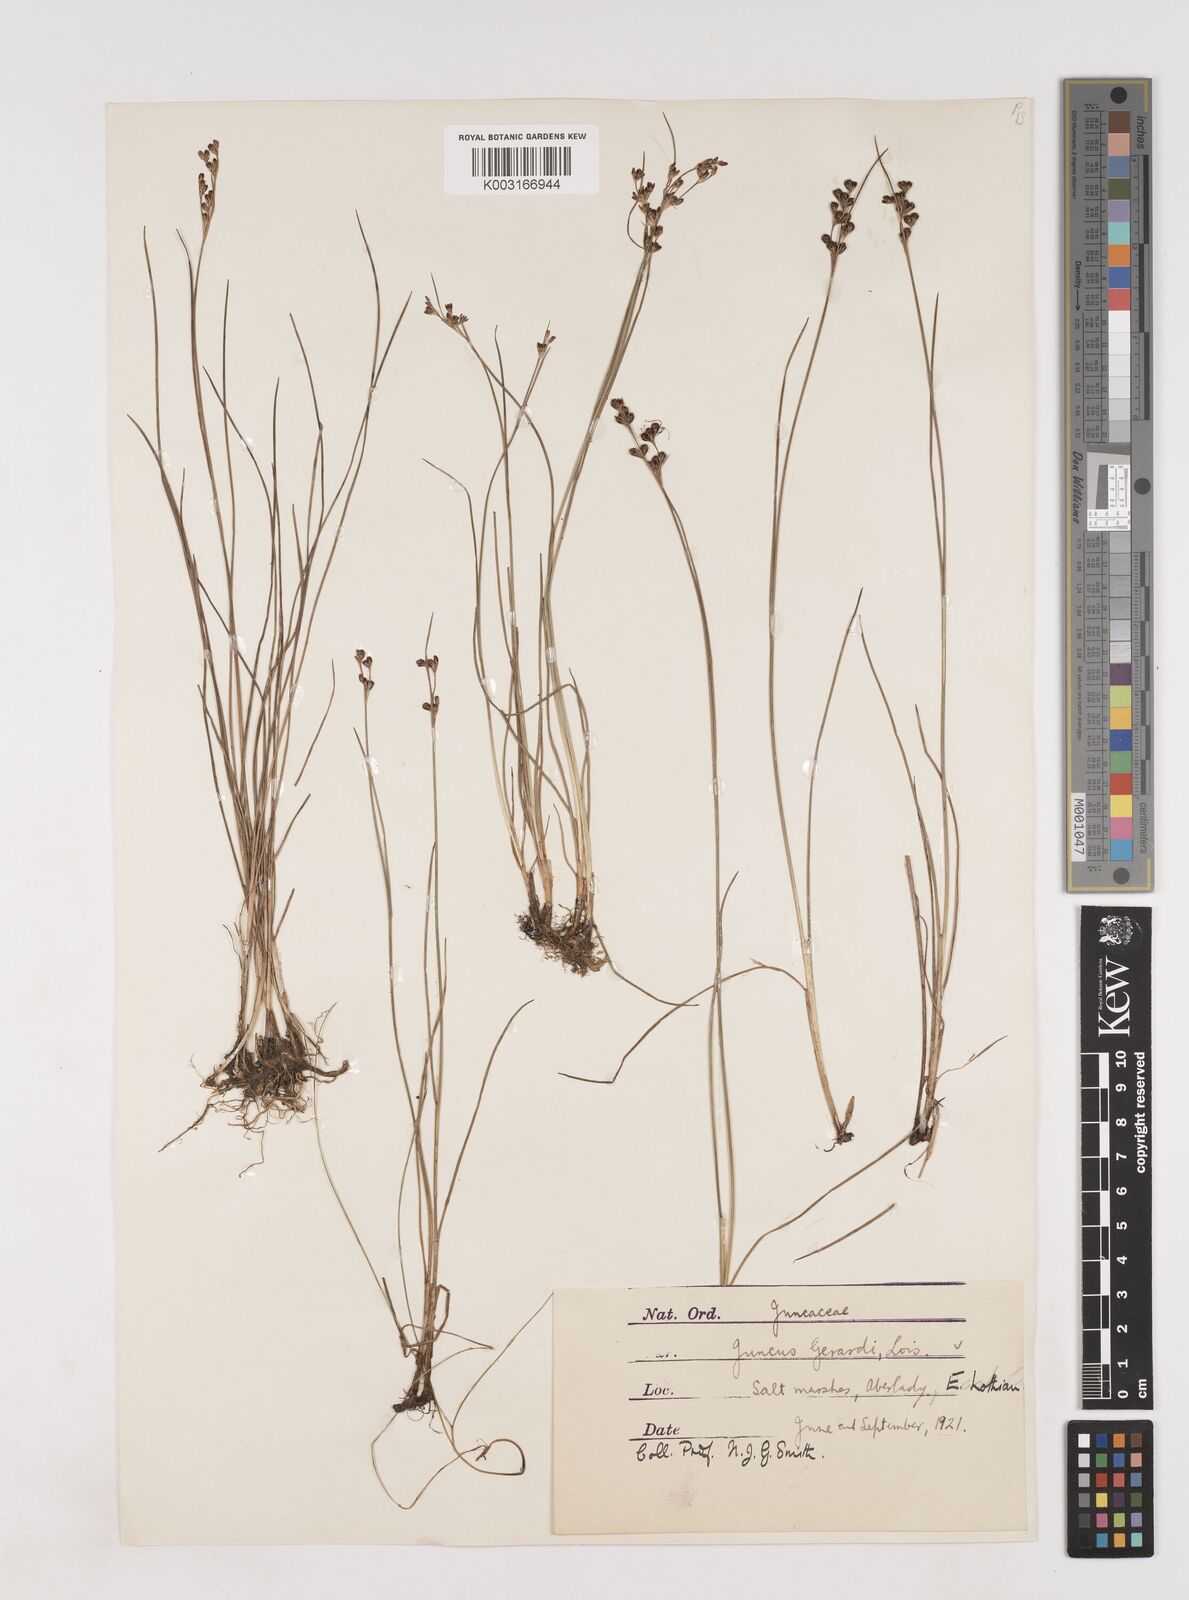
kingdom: Plantae
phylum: Tracheophyta
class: Liliopsida
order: Poales
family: Juncaceae
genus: Juncus
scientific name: Juncus gerardi
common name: Saltmarsh rush
